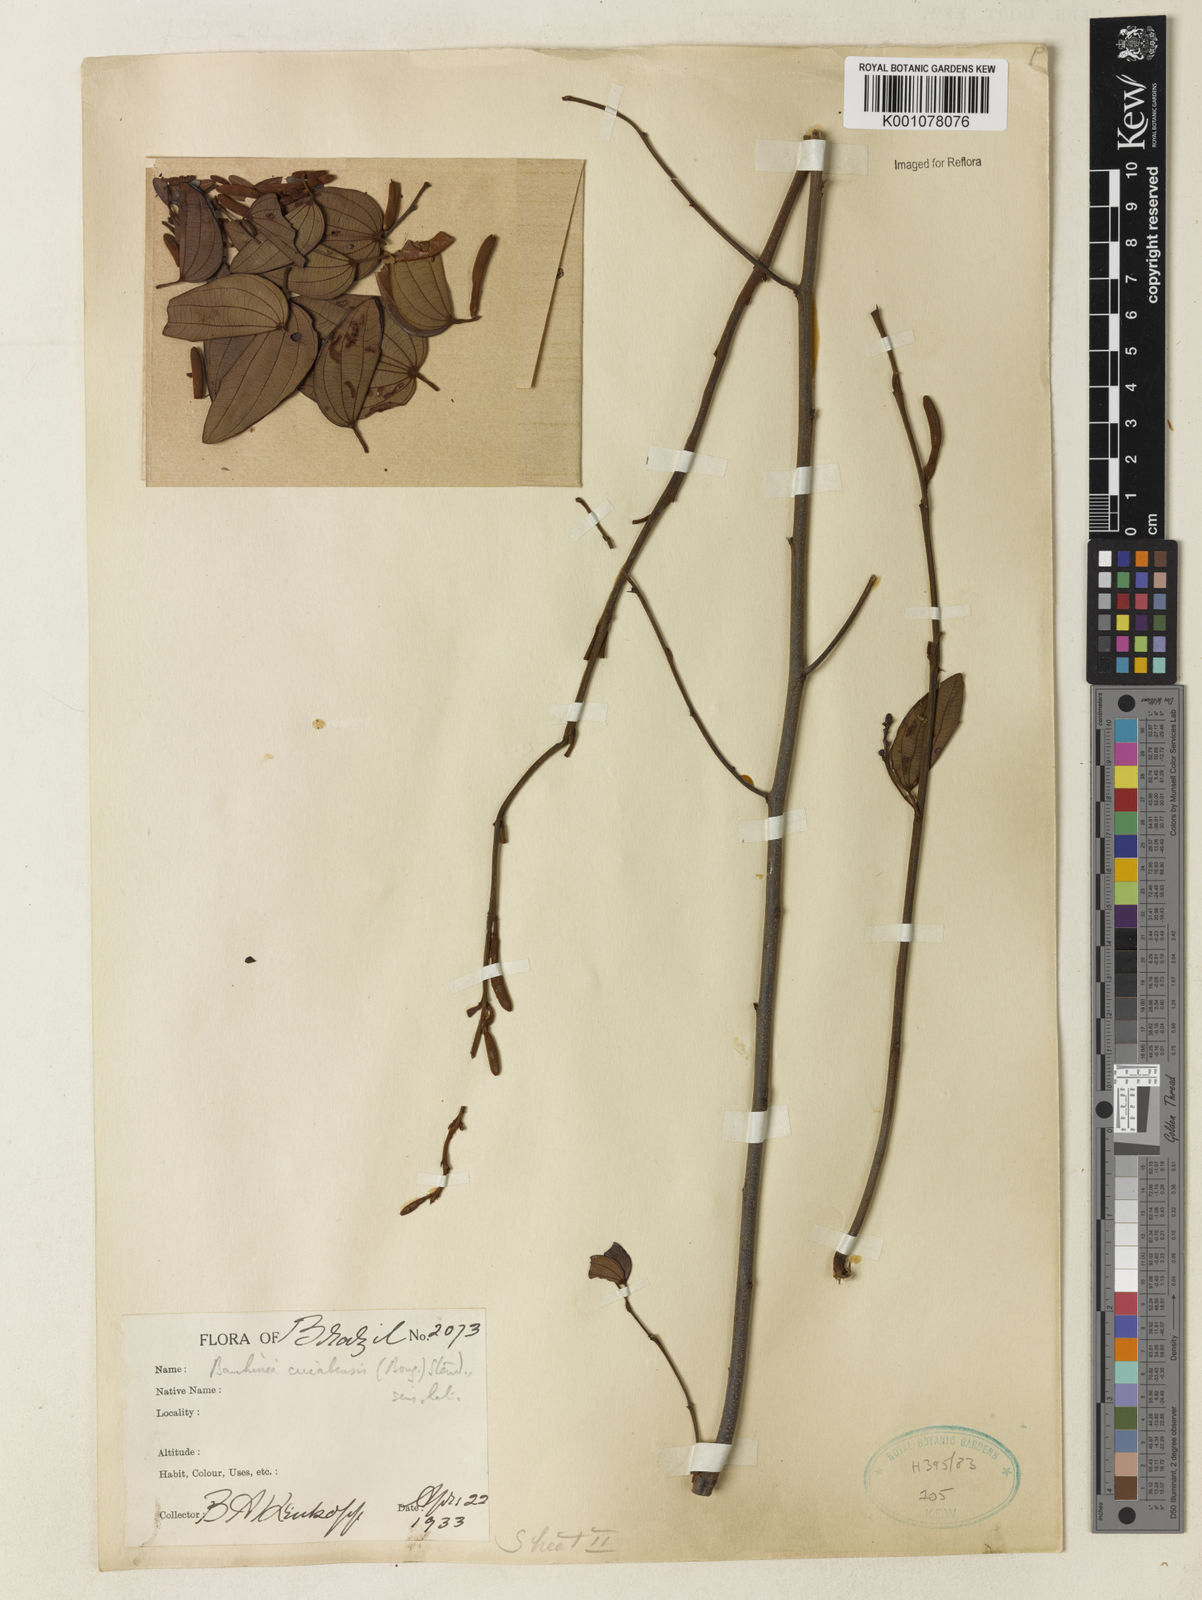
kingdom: Plantae
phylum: Tracheophyta
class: Magnoliopsida
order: Fabales
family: Fabaceae
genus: Bauhinia
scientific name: Bauhinia ungulata
